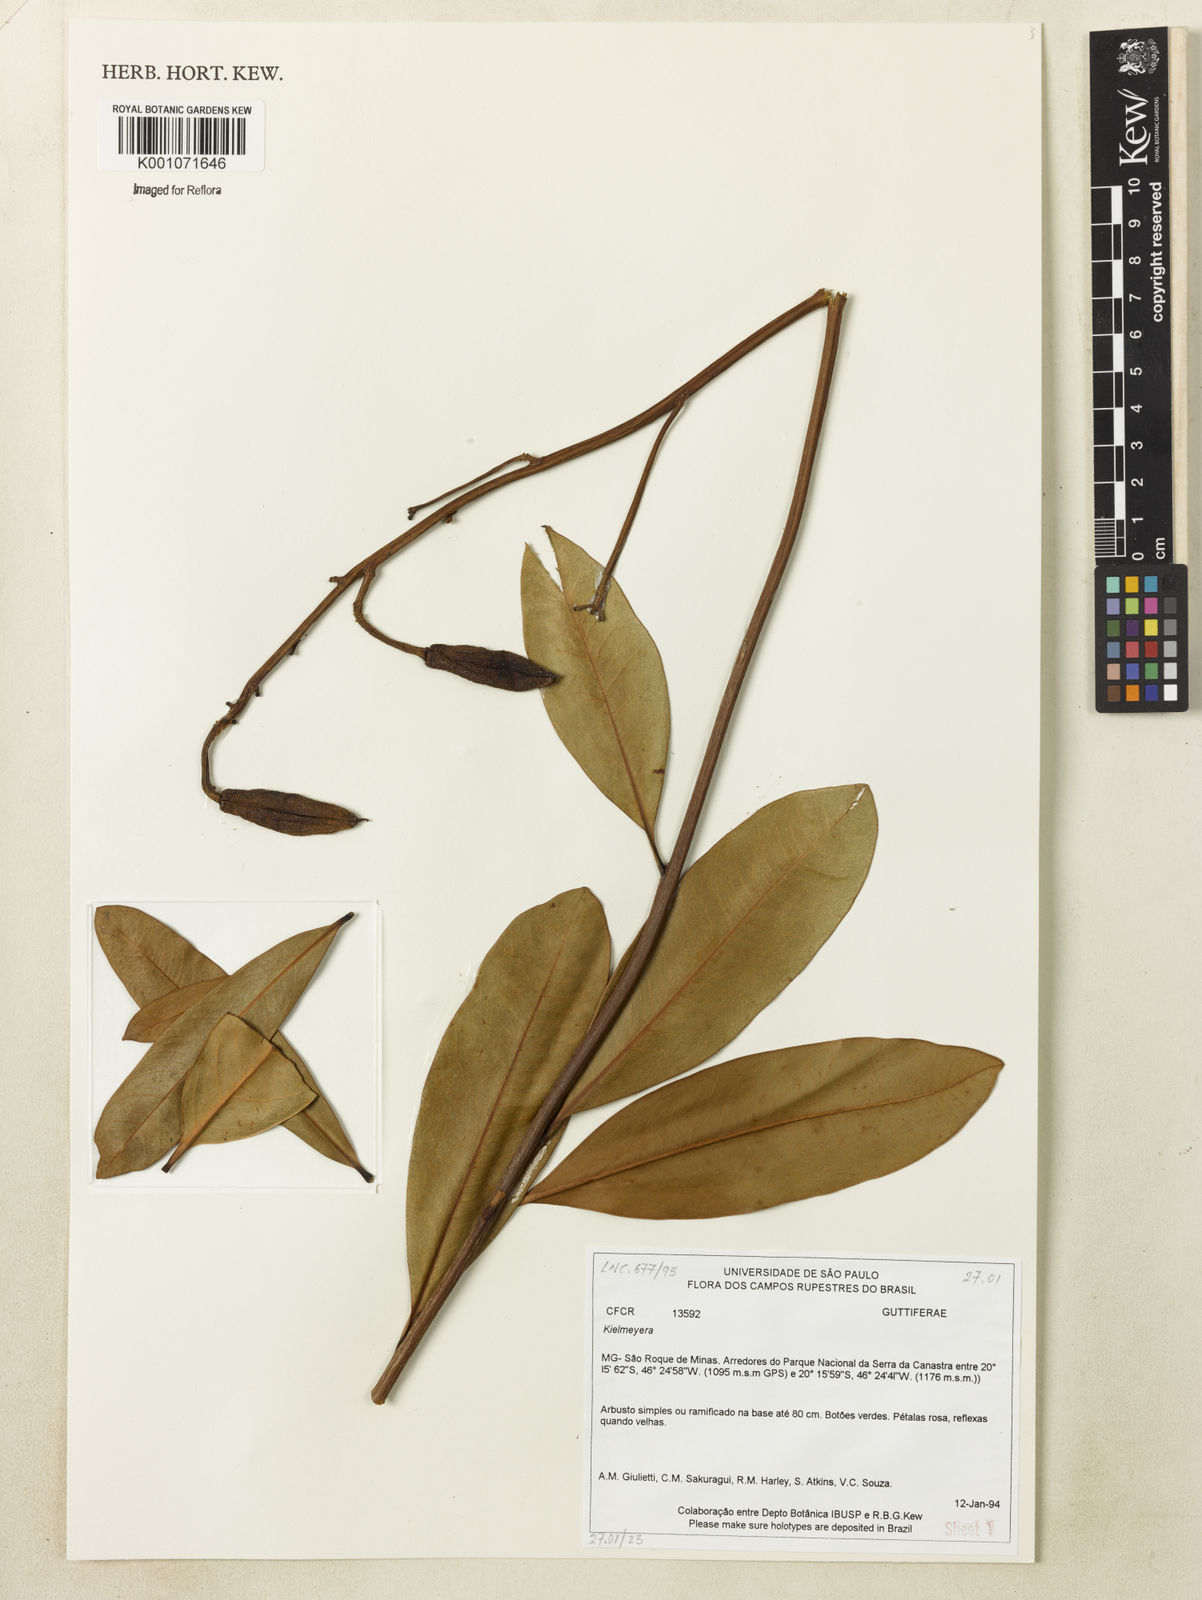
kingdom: Plantae
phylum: Tracheophyta
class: Magnoliopsida
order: Malpighiales
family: Calophyllaceae
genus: Kielmeyera
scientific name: Kielmeyera pumila
